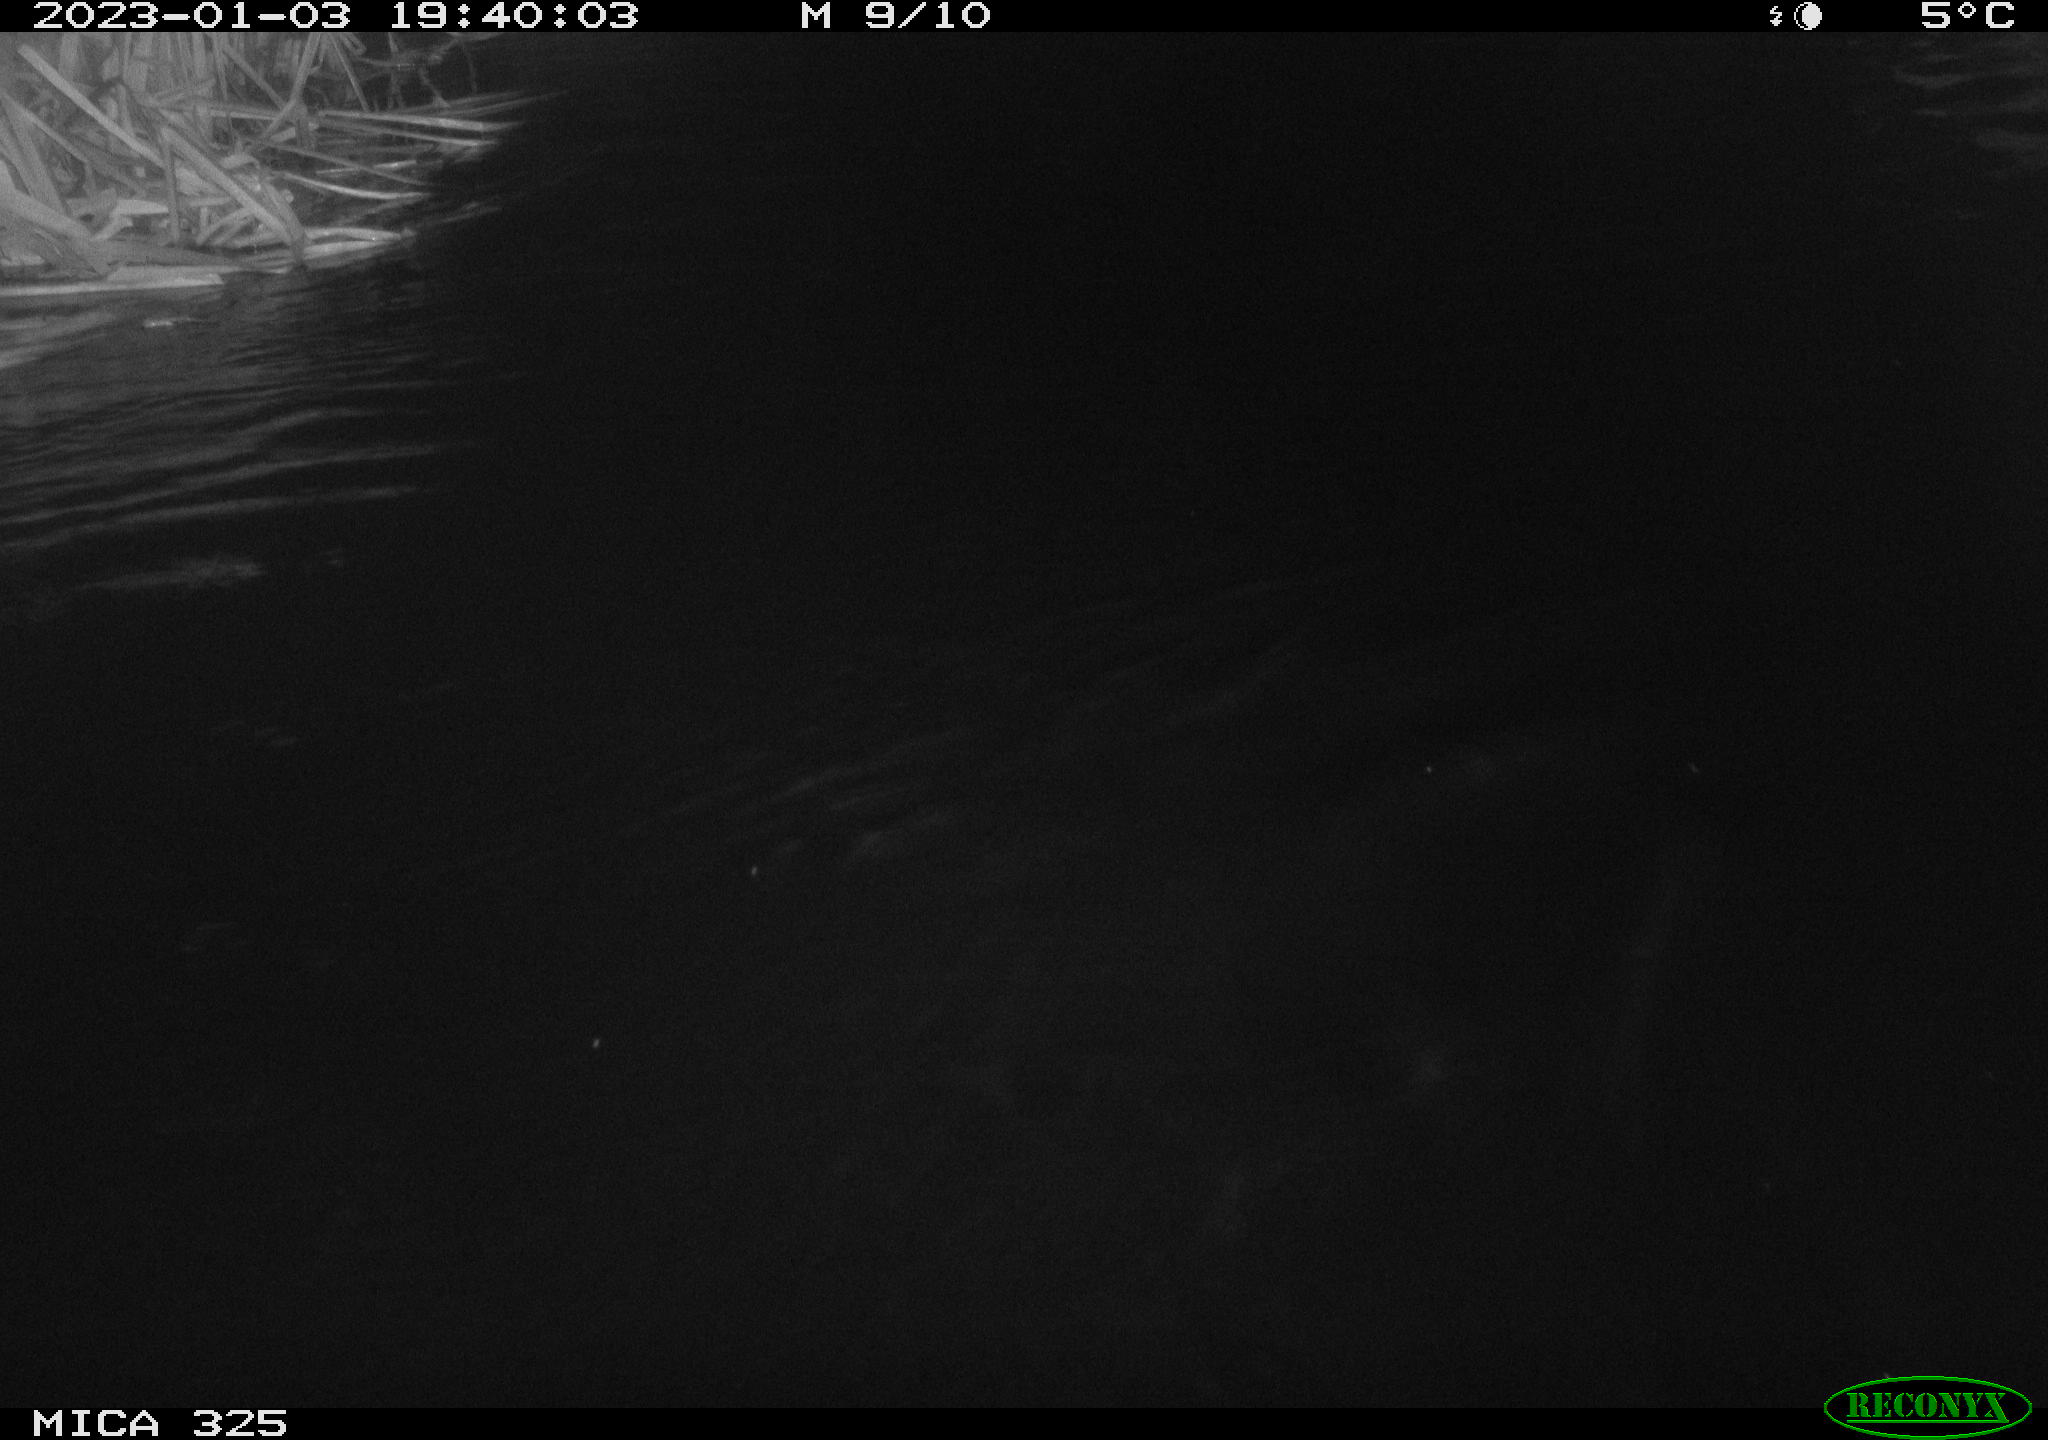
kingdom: Animalia
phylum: Chordata
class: Mammalia
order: Rodentia
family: Myocastoridae
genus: Myocastor
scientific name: Myocastor coypus
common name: Coypu
